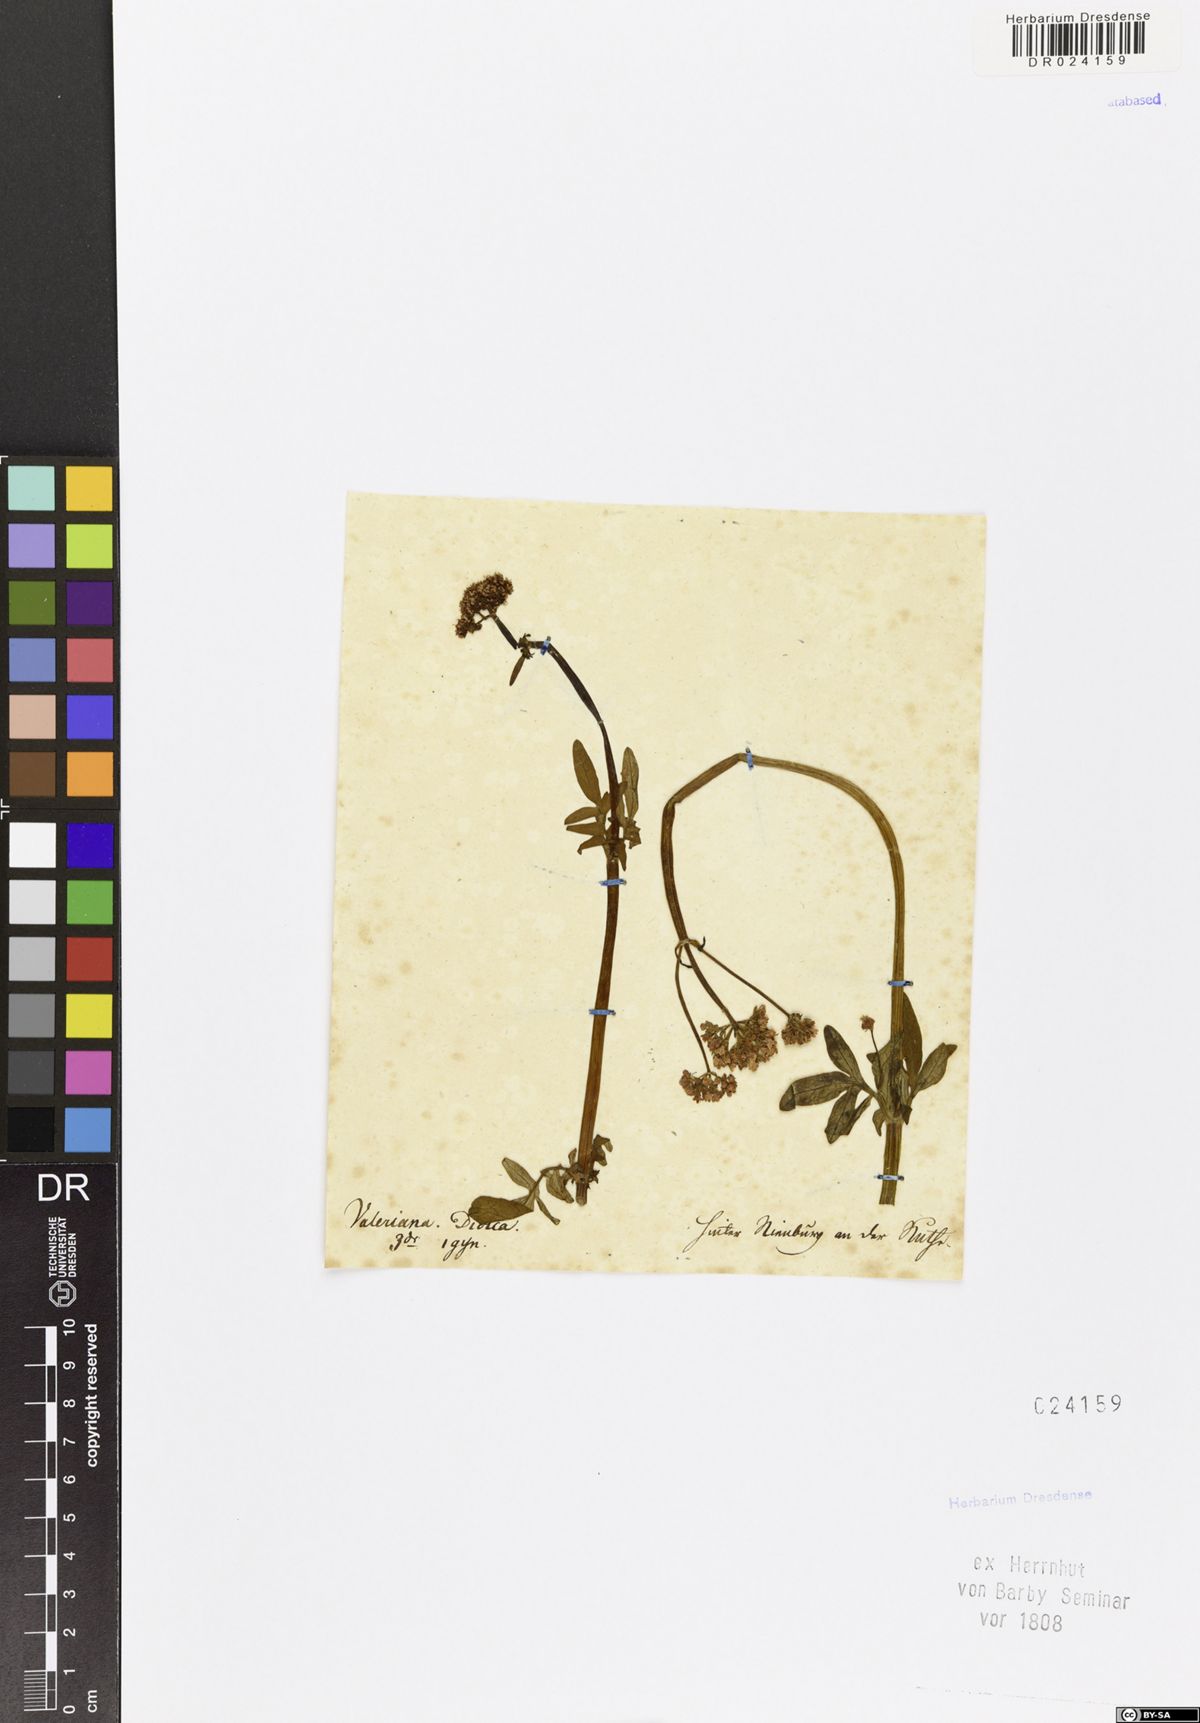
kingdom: Plantae
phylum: Tracheophyta
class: Magnoliopsida
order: Dipsacales
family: Caprifoliaceae
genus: Valeriana
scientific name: Valeriana dioica
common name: Marsh valerian
